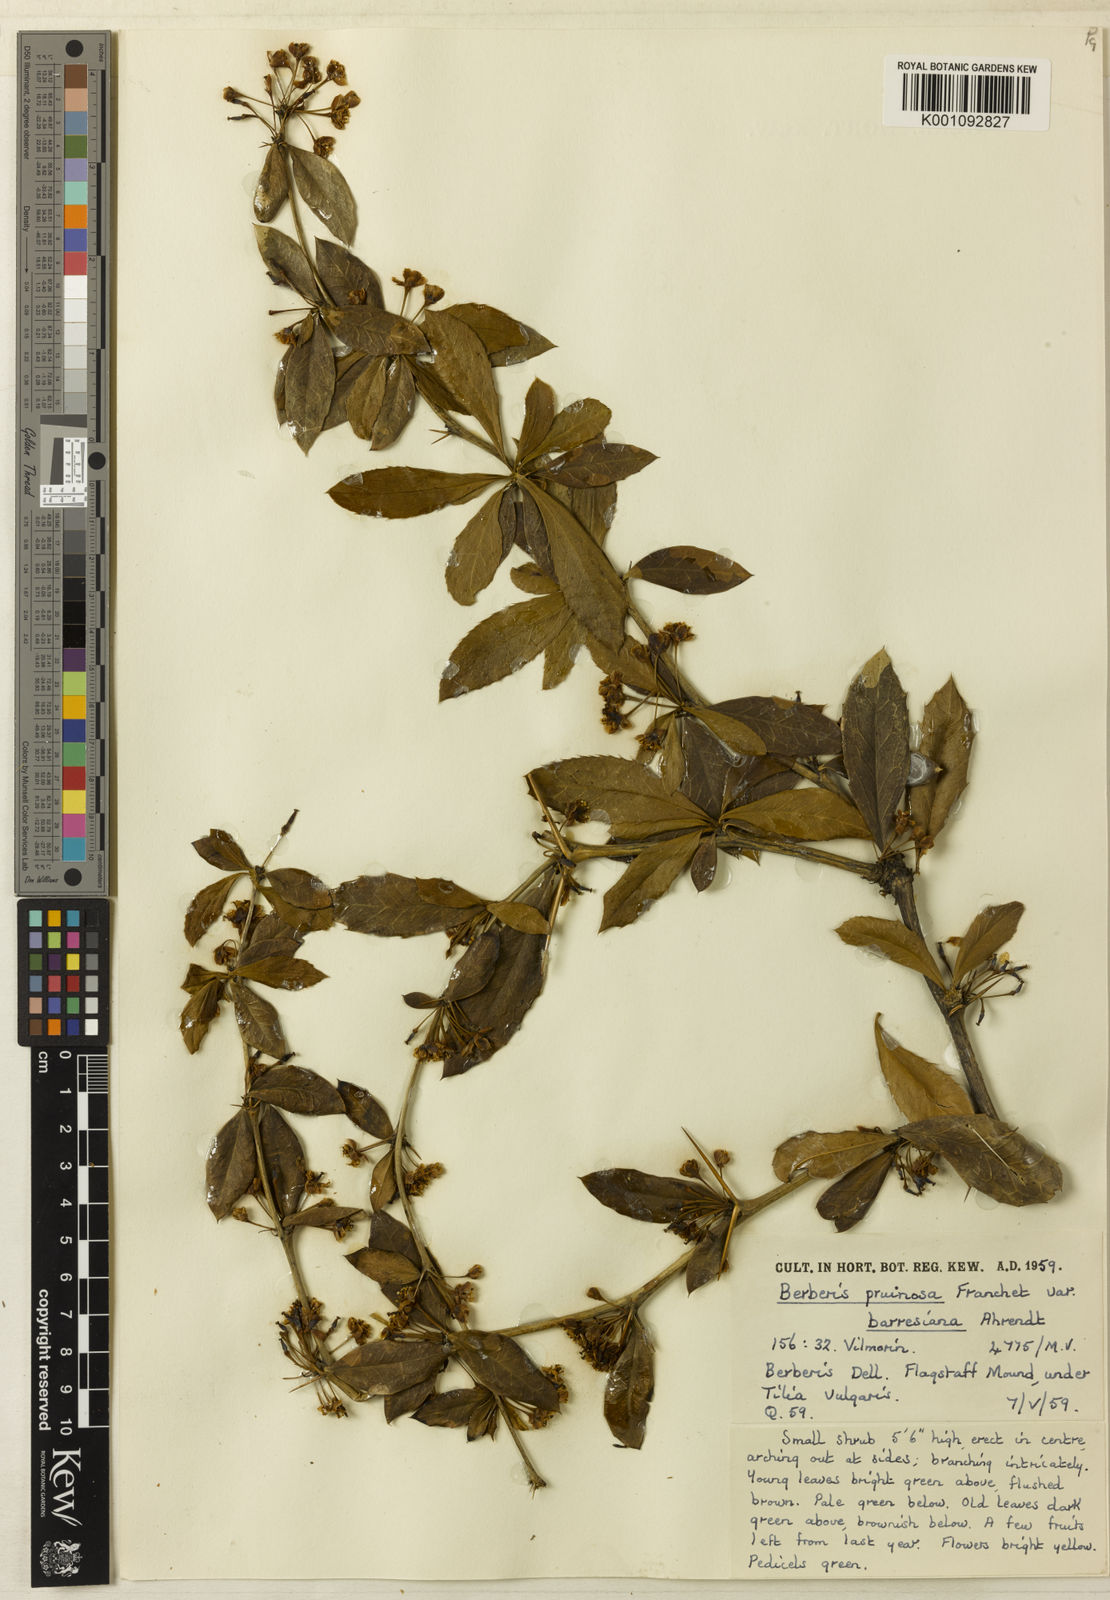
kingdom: Plantae
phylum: Tracheophyta
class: Magnoliopsida
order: Ranunculales
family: Berberidaceae
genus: Berberis
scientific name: Berberis pruinosa
